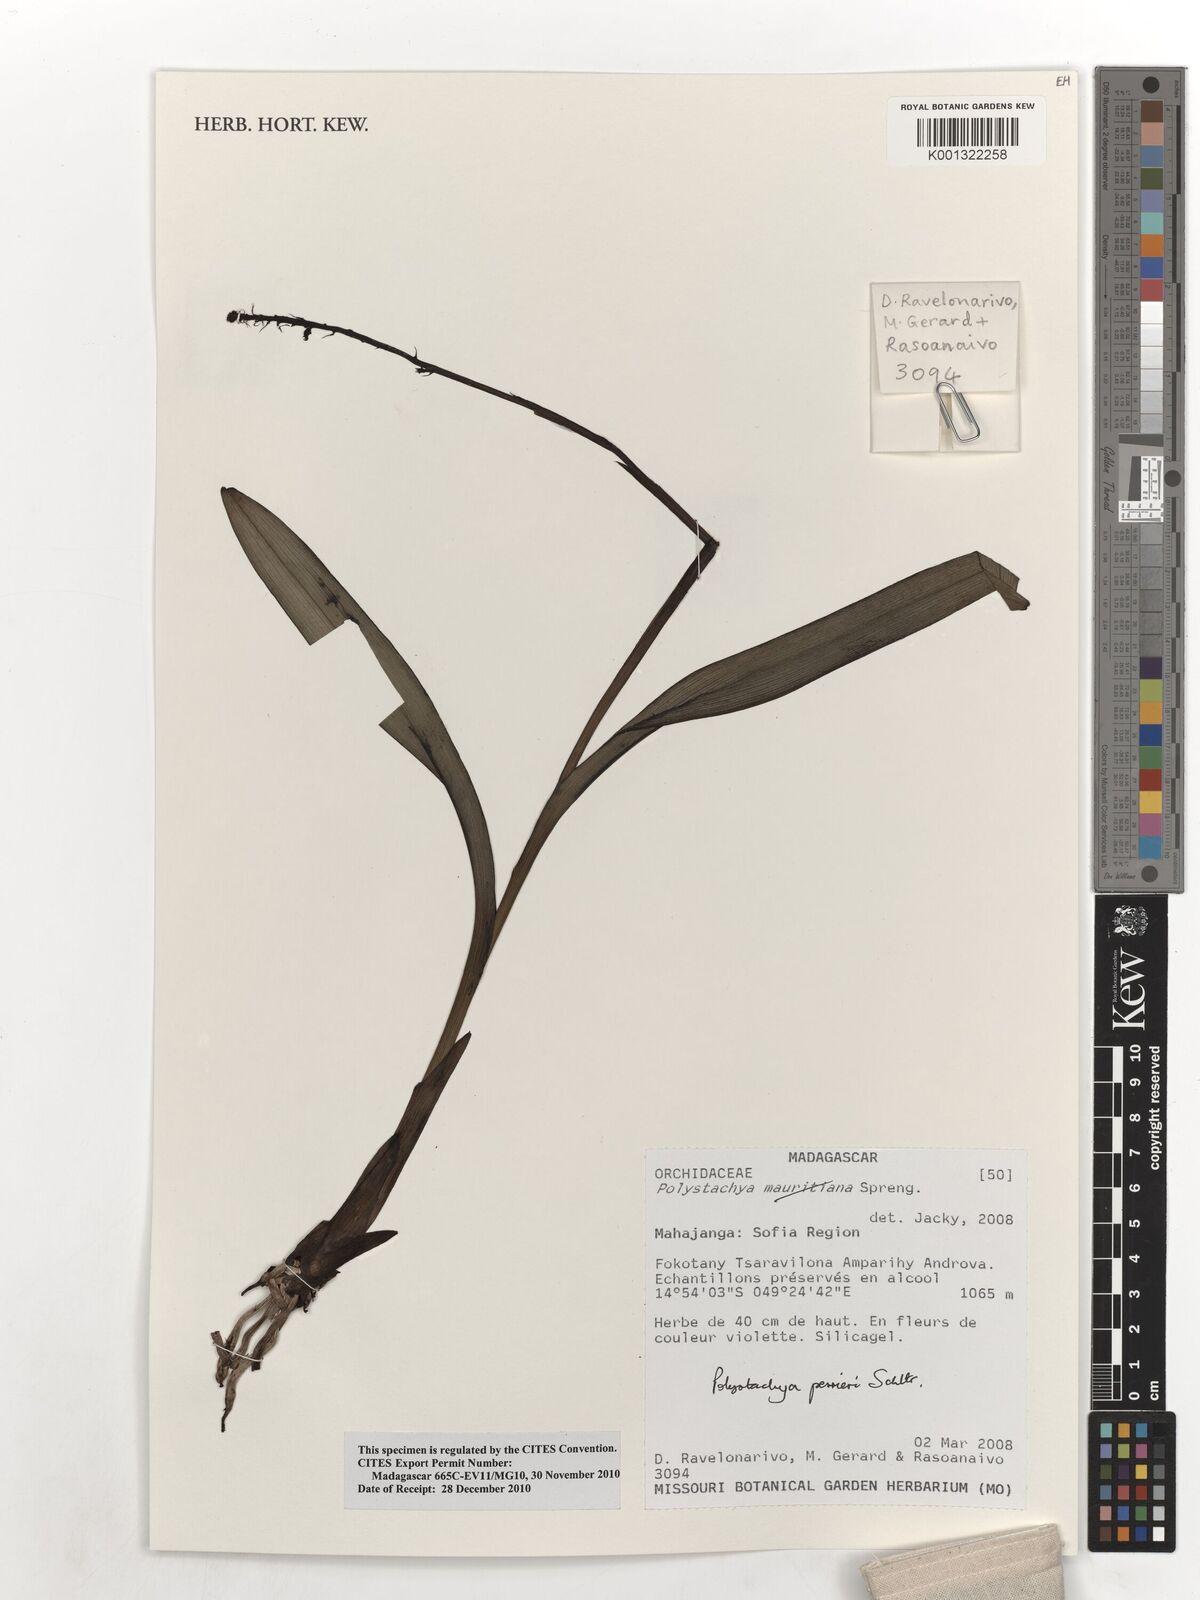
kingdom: Plantae
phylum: Tracheophyta
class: Liliopsida
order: Asparagales
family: Orchidaceae
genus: Polystachya
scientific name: Polystachya perrieri
